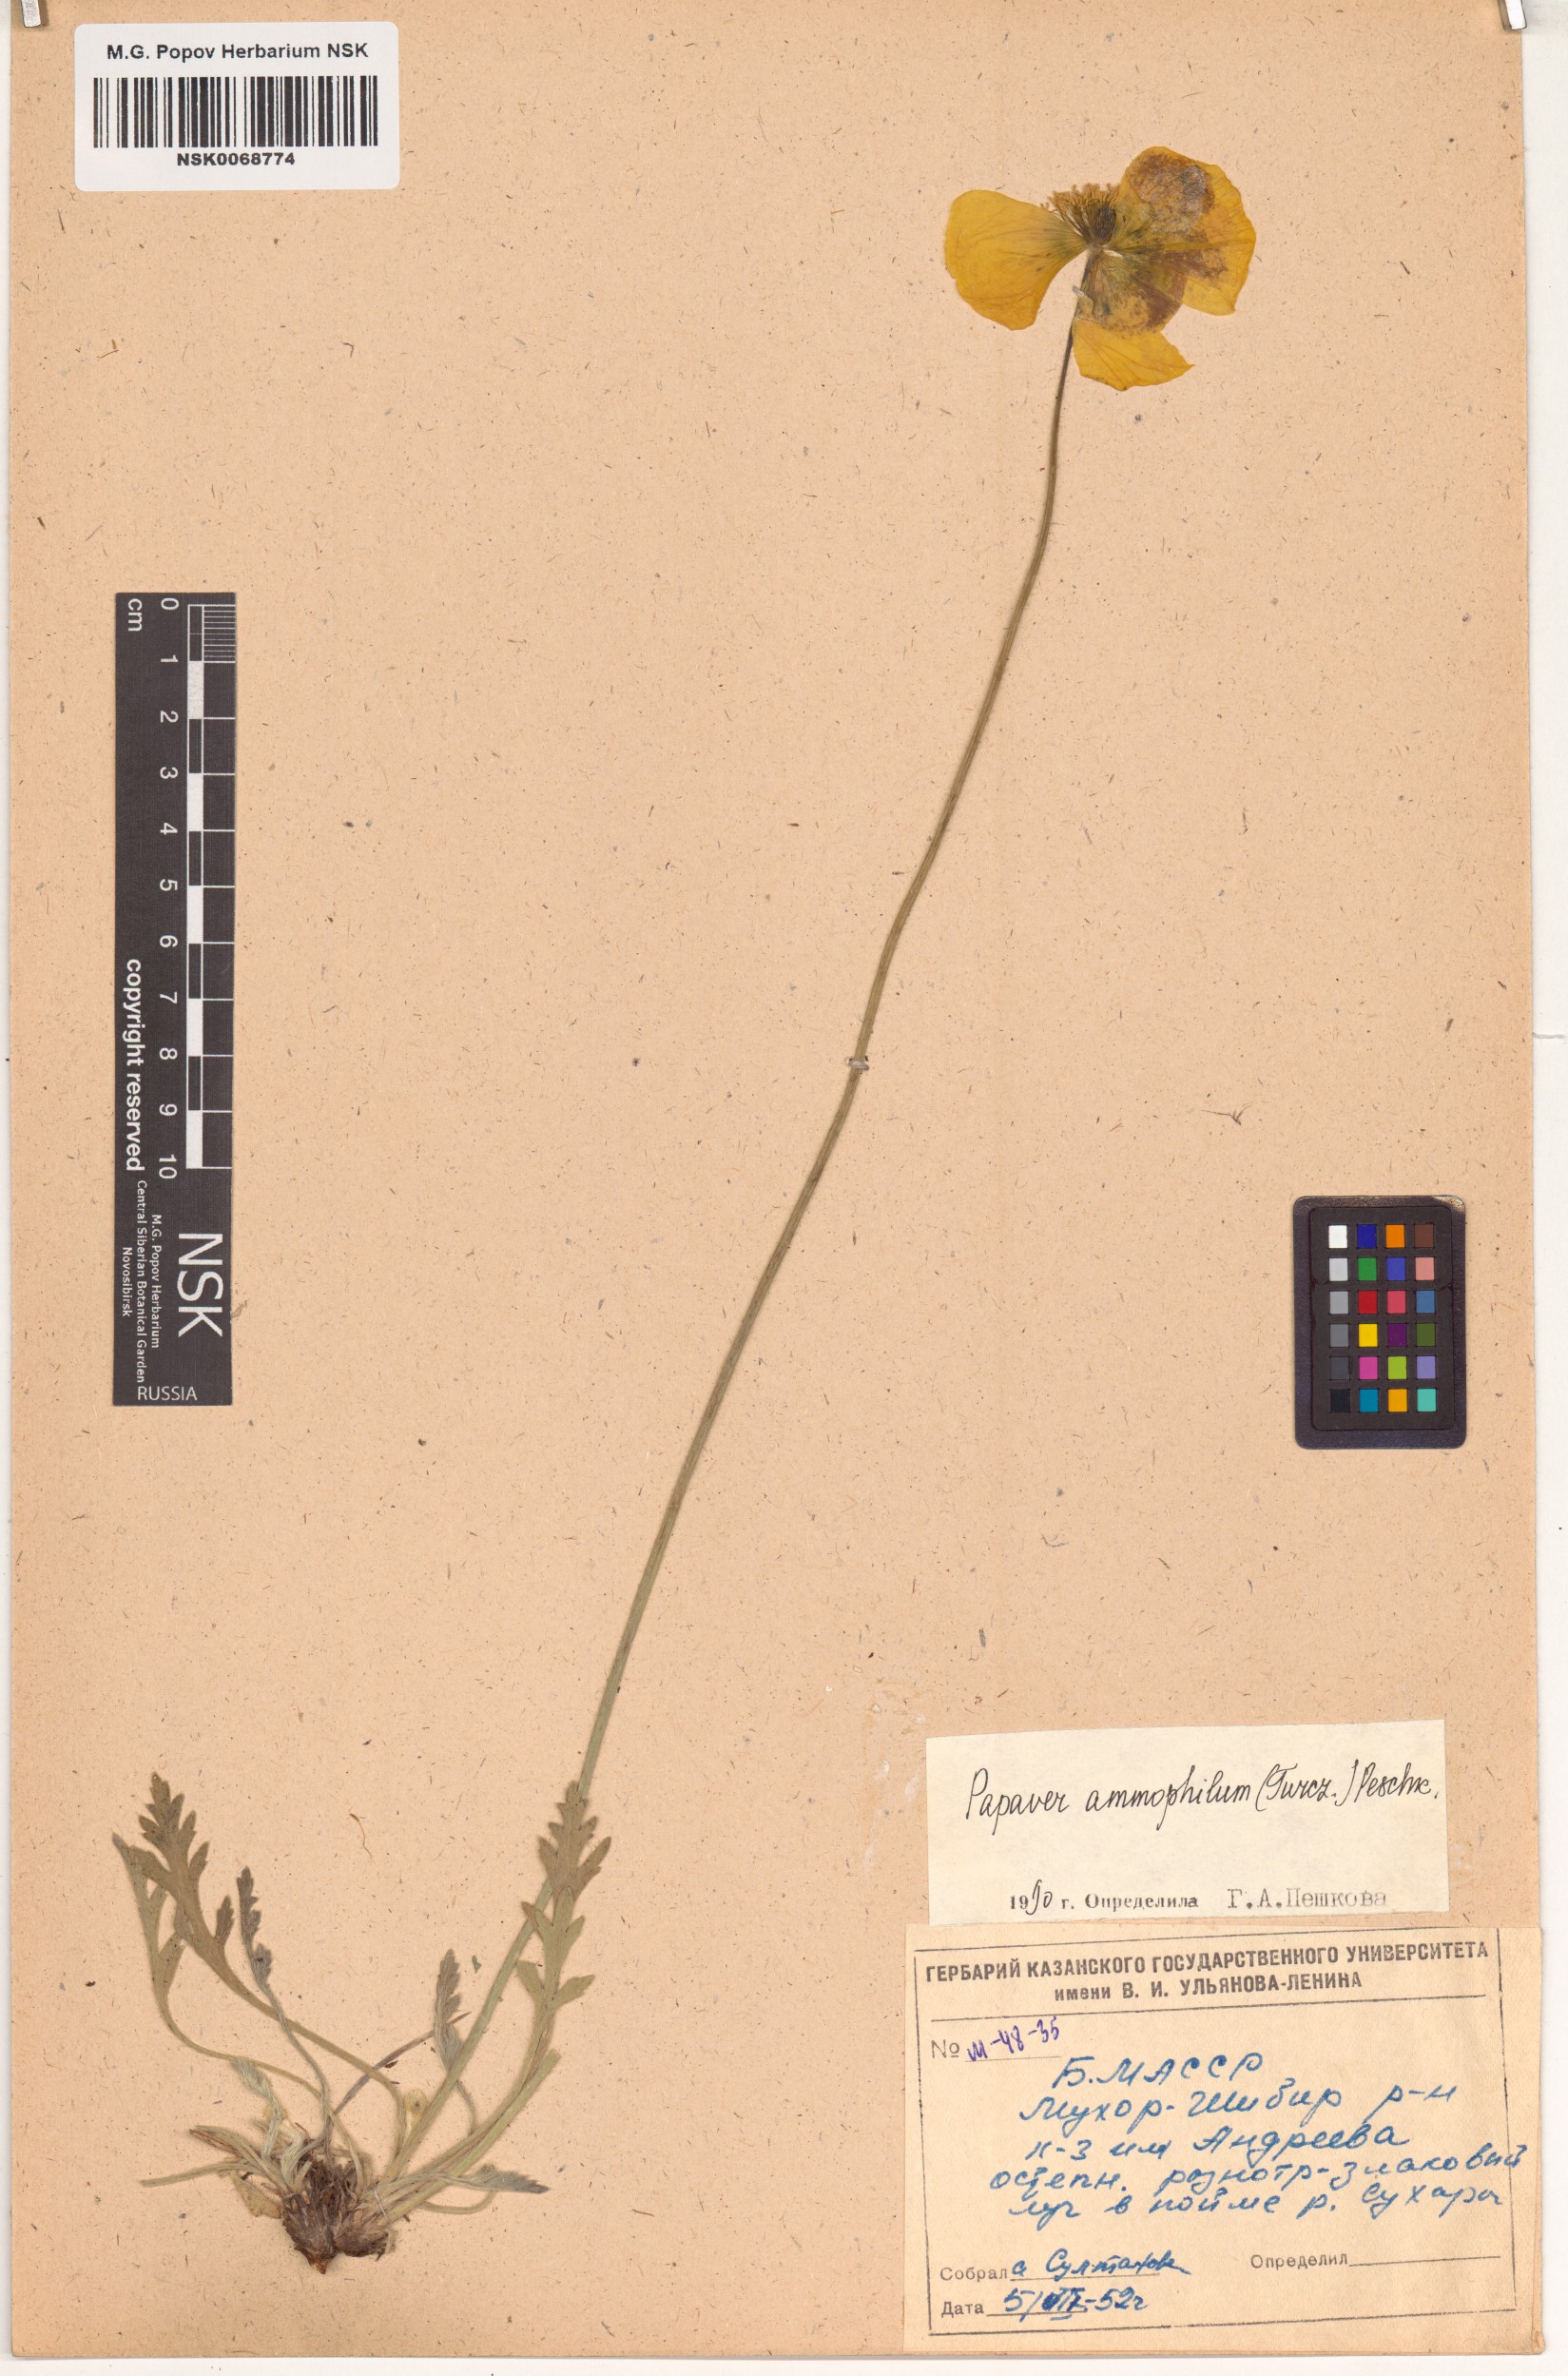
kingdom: Plantae
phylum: Tracheophyta
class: Magnoliopsida
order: Ranunculales
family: Papaveraceae
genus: Papaver
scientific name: Papaver nudicaule
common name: Arctic poppy
